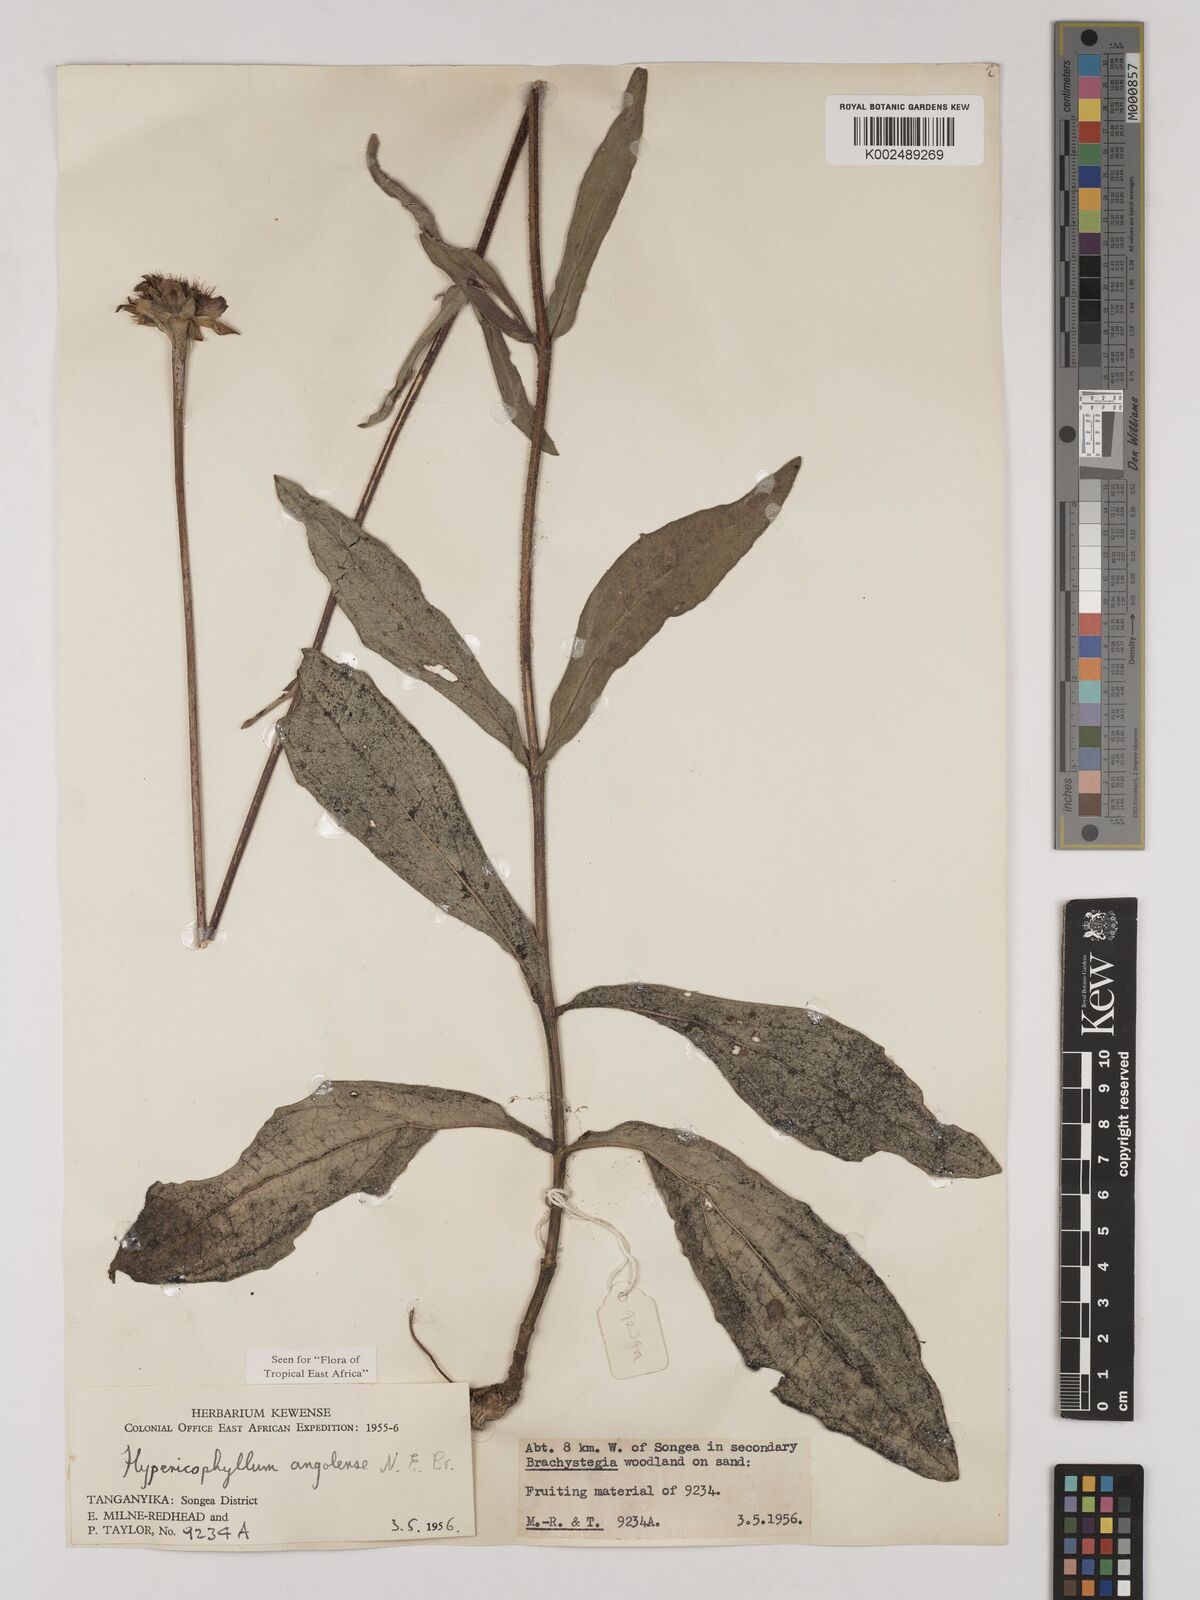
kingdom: Plantae
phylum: Tracheophyta
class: Magnoliopsida
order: Asterales
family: Asteraceae
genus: Hypericophyllum
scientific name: Hypericophyllum angolense
